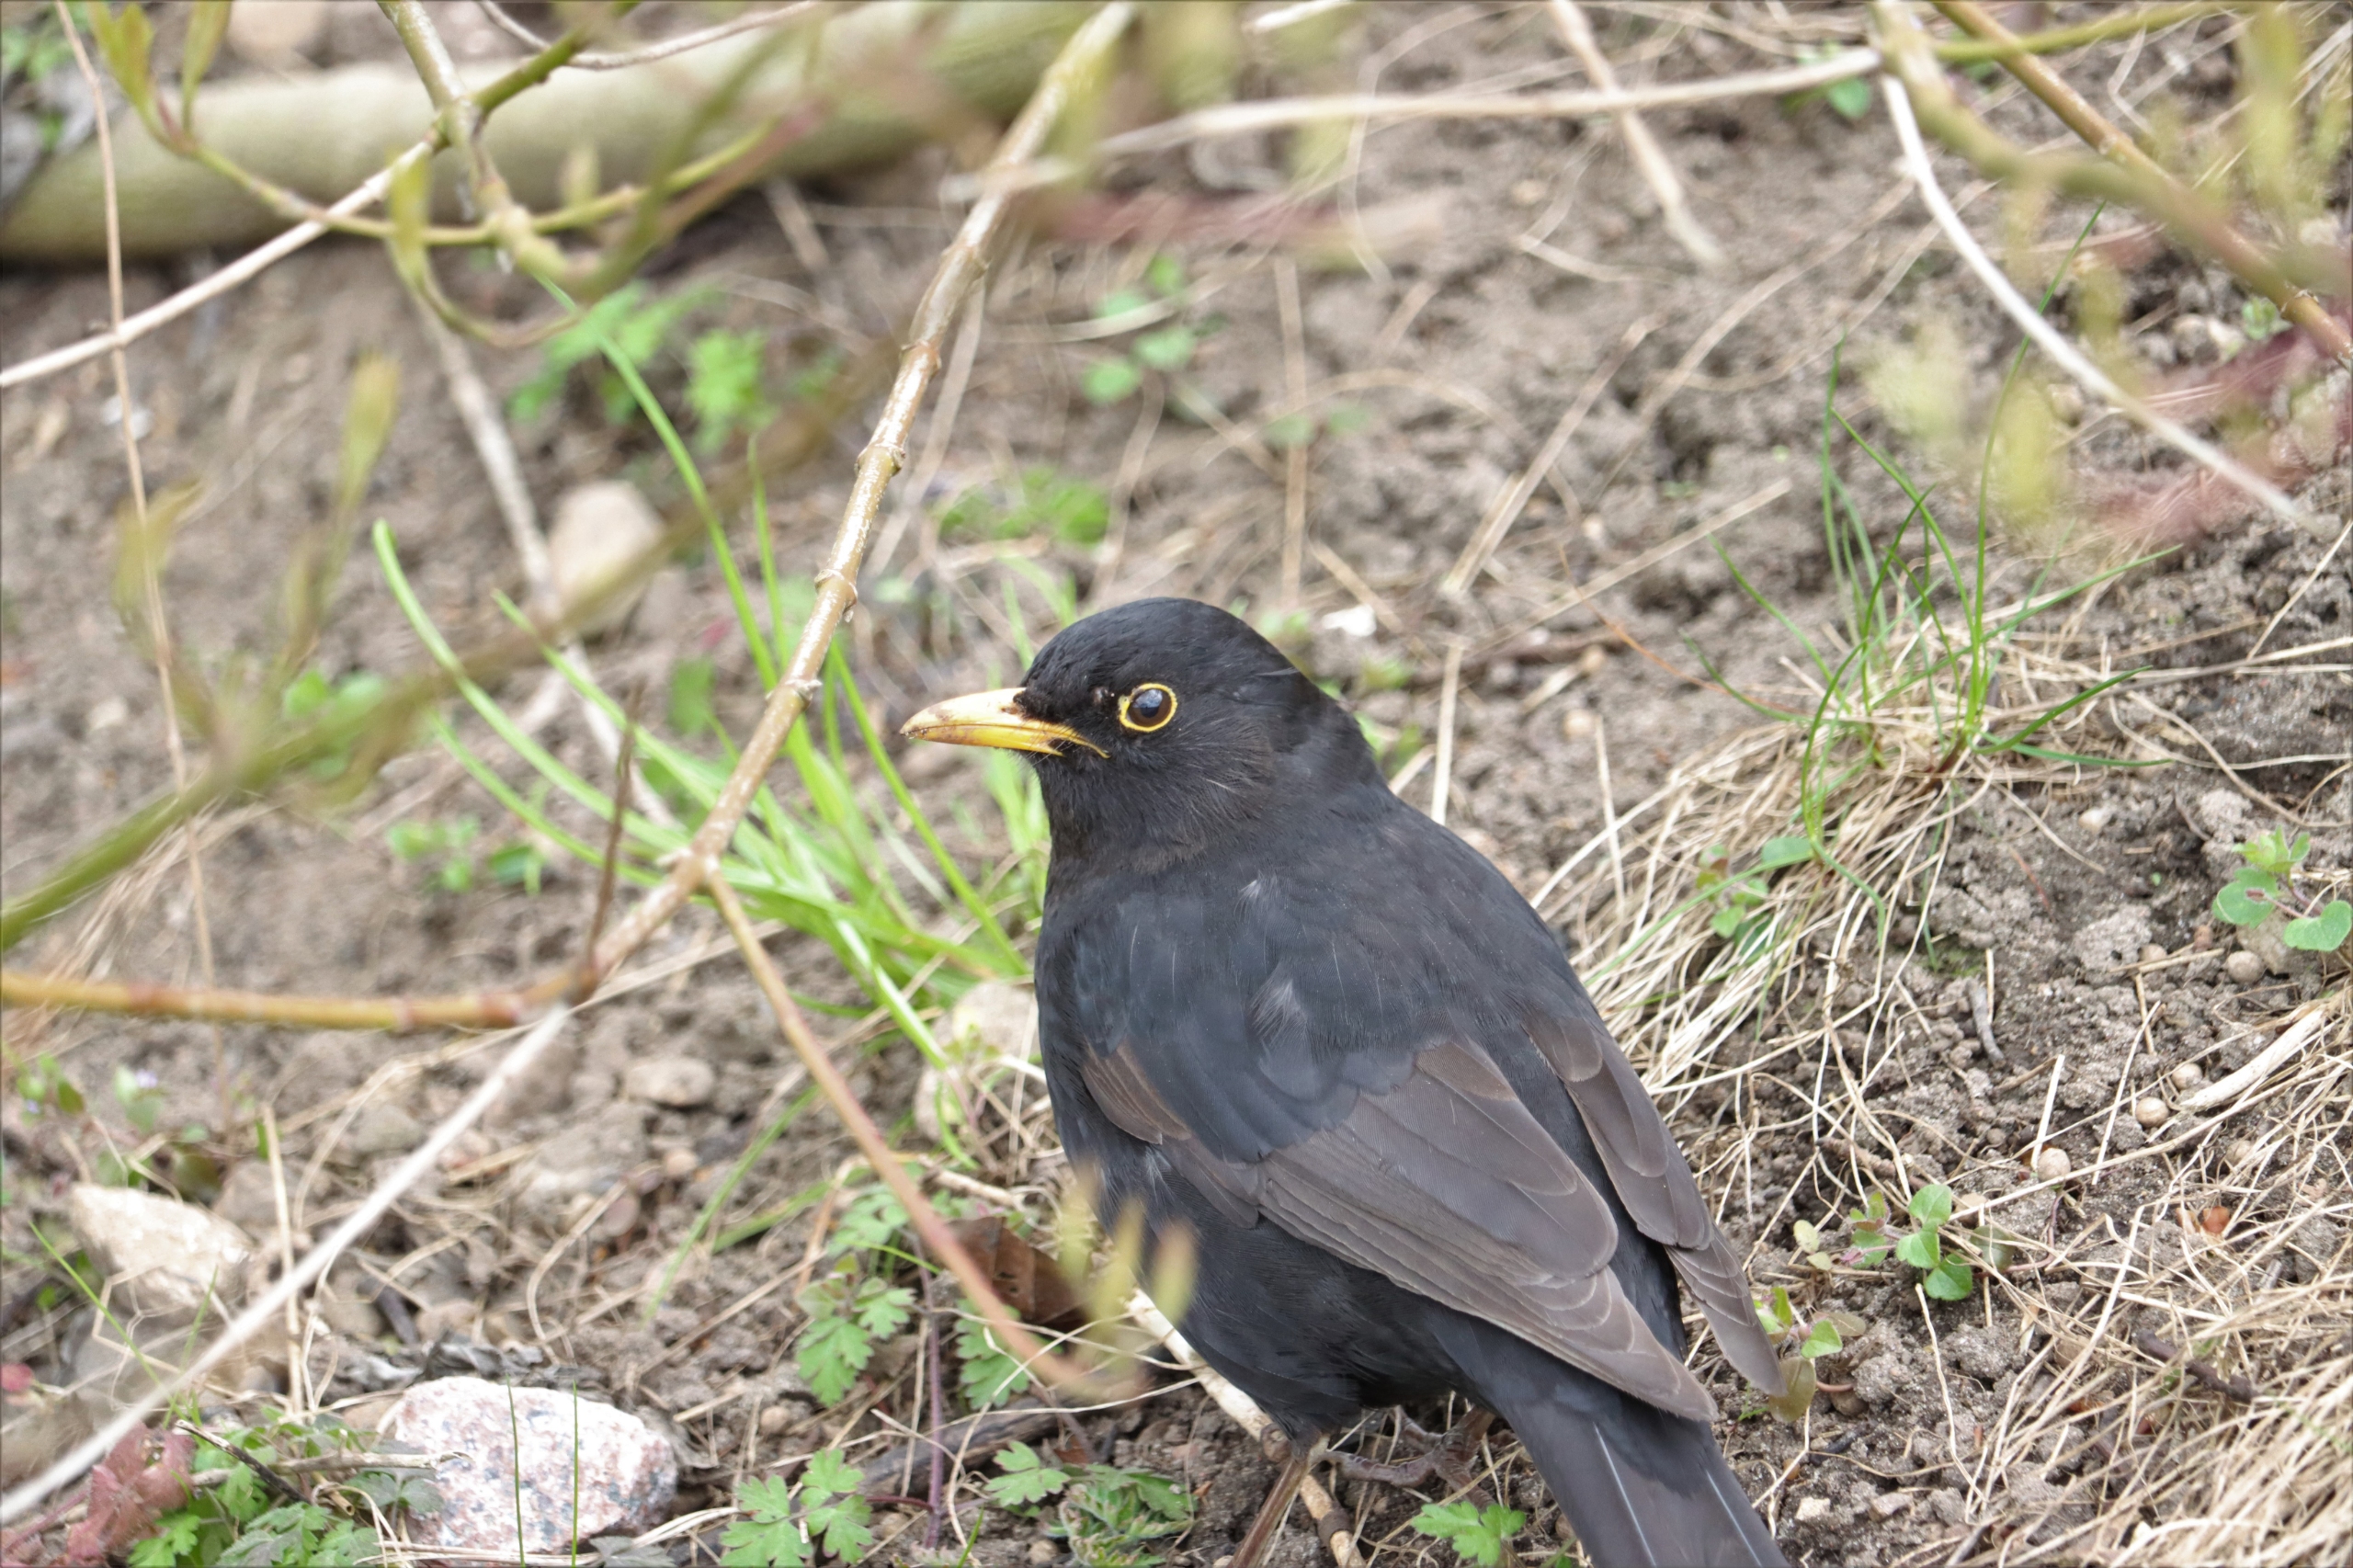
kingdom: Animalia
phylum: Chordata
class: Aves
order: Passeriformes
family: Turdidae
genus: Turdus
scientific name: Turdus merula
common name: Solsort
